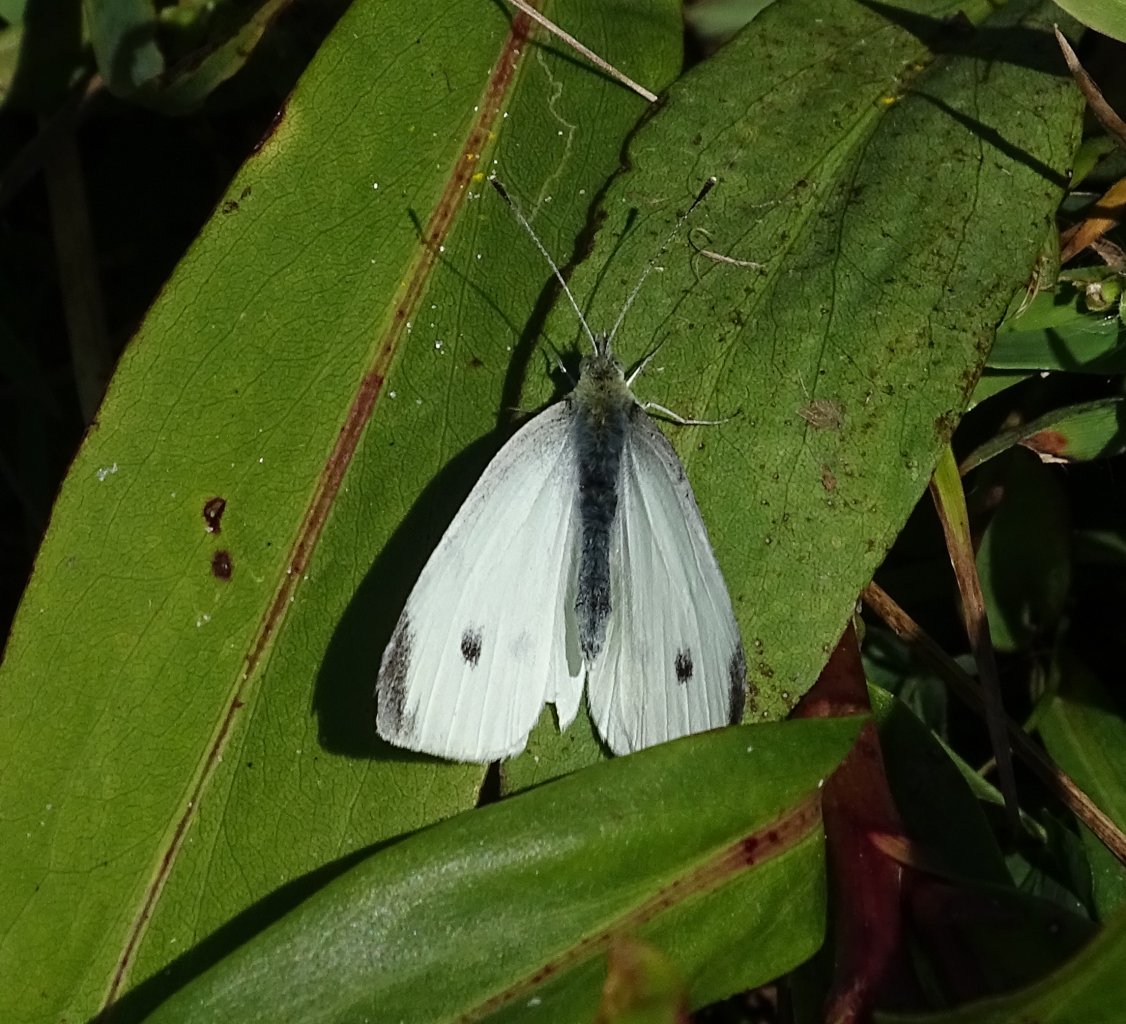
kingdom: Animalia
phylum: Arthropoda
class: Insecta
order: Lepidoptera
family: Pieridae
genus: Pieris
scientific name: Pieris rapae
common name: Cabbage White
